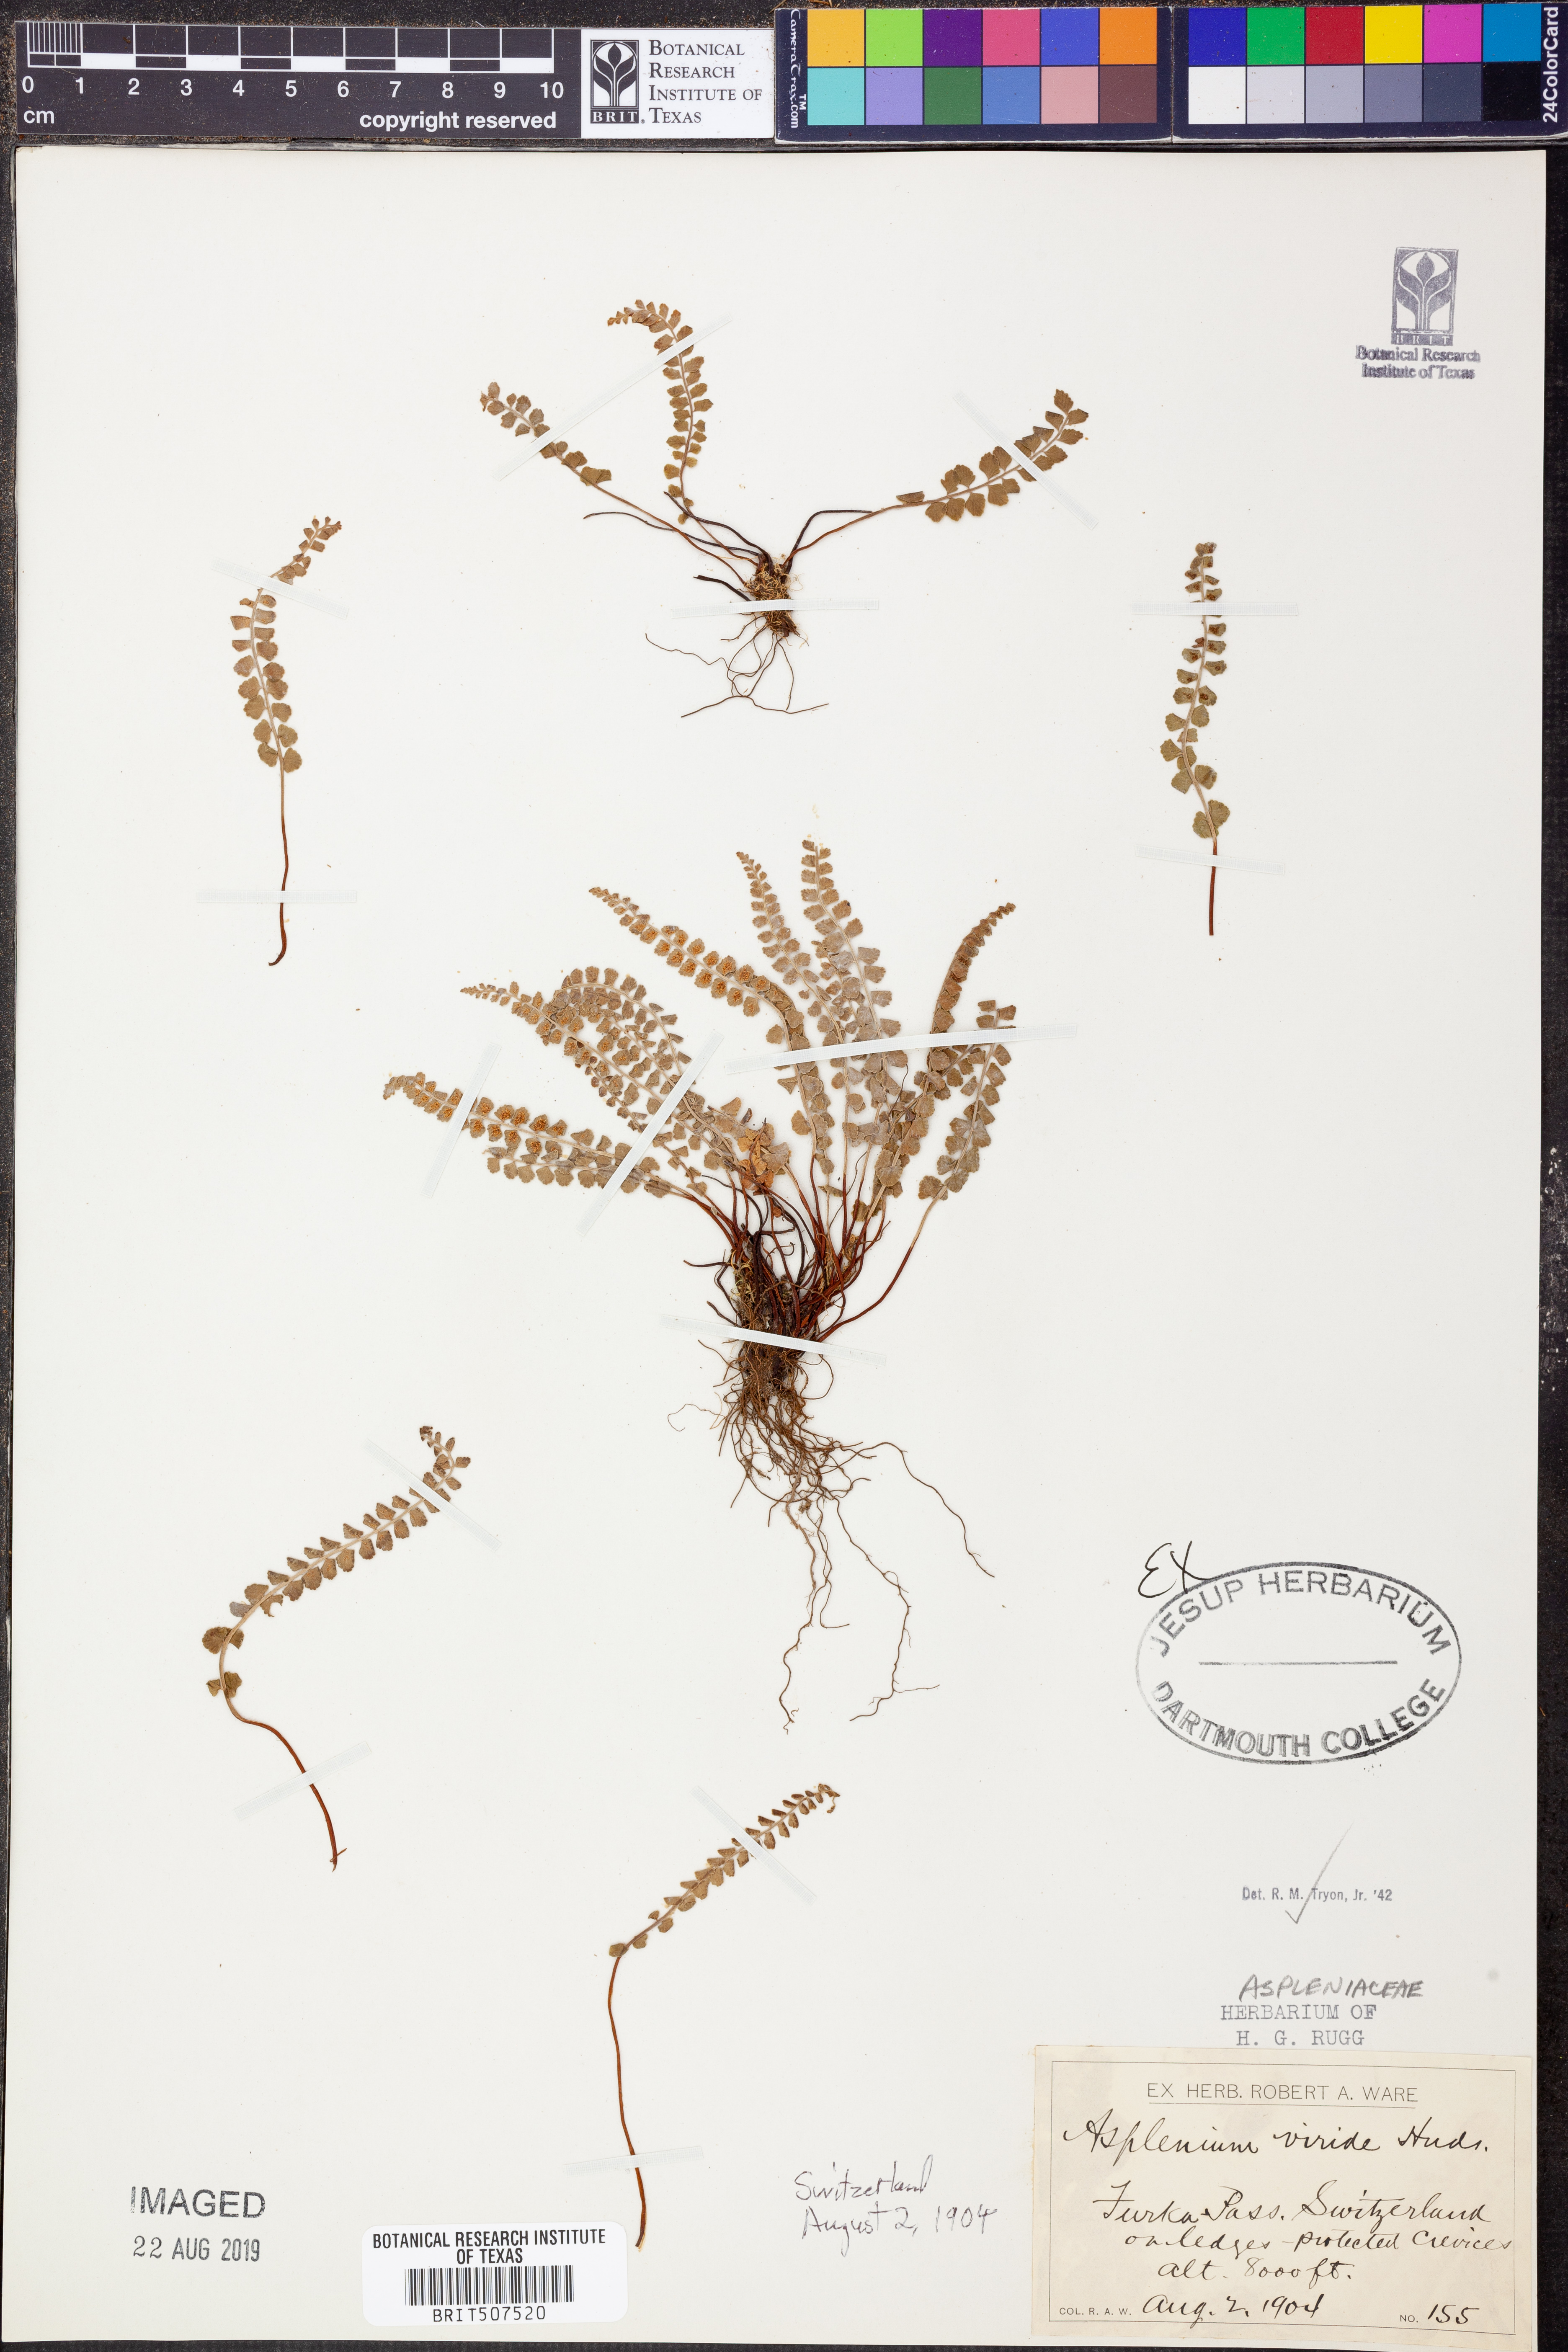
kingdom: Plantae
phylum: Tracheophyta
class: Polypodiopsida
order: Polypodiales
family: Aspleniaceae
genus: Asplenium
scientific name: Asplenium viride
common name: Green spleenwort
